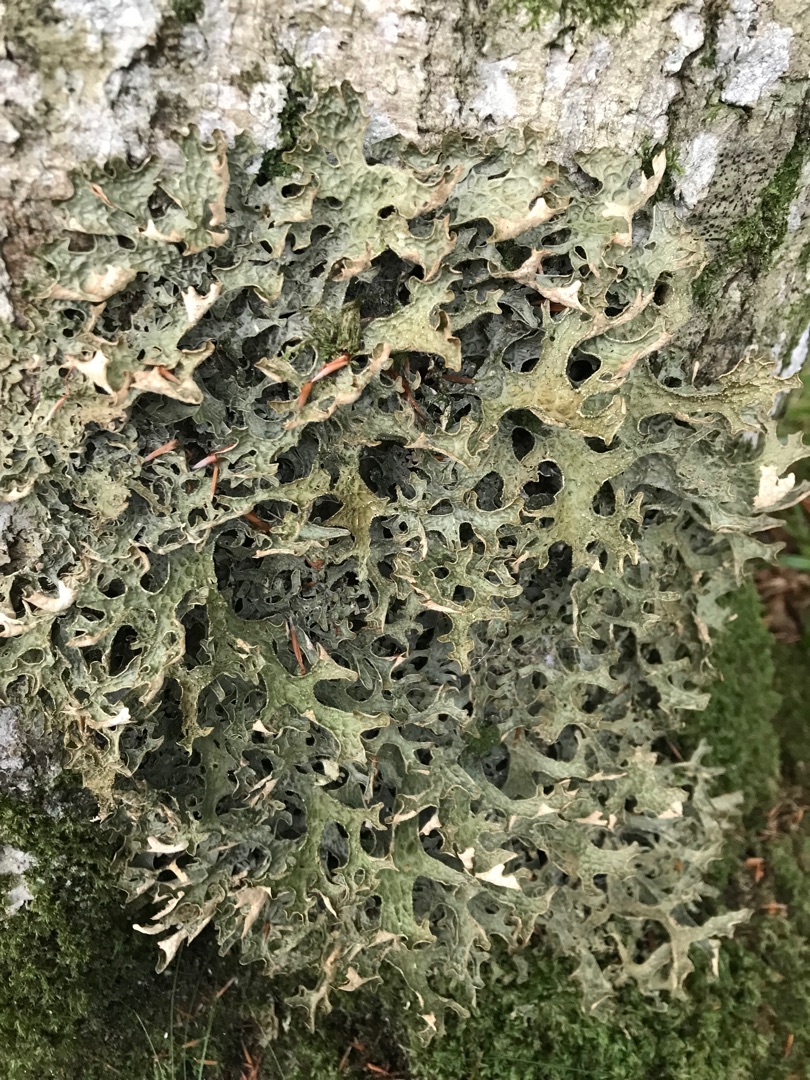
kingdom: Fungi
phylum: Ascomycota
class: Lecanoromycetes
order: Peltigerales
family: Lobariaceae
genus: Lobaria
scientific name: Lobaria pulmonaria
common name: Almindelig lungelav
